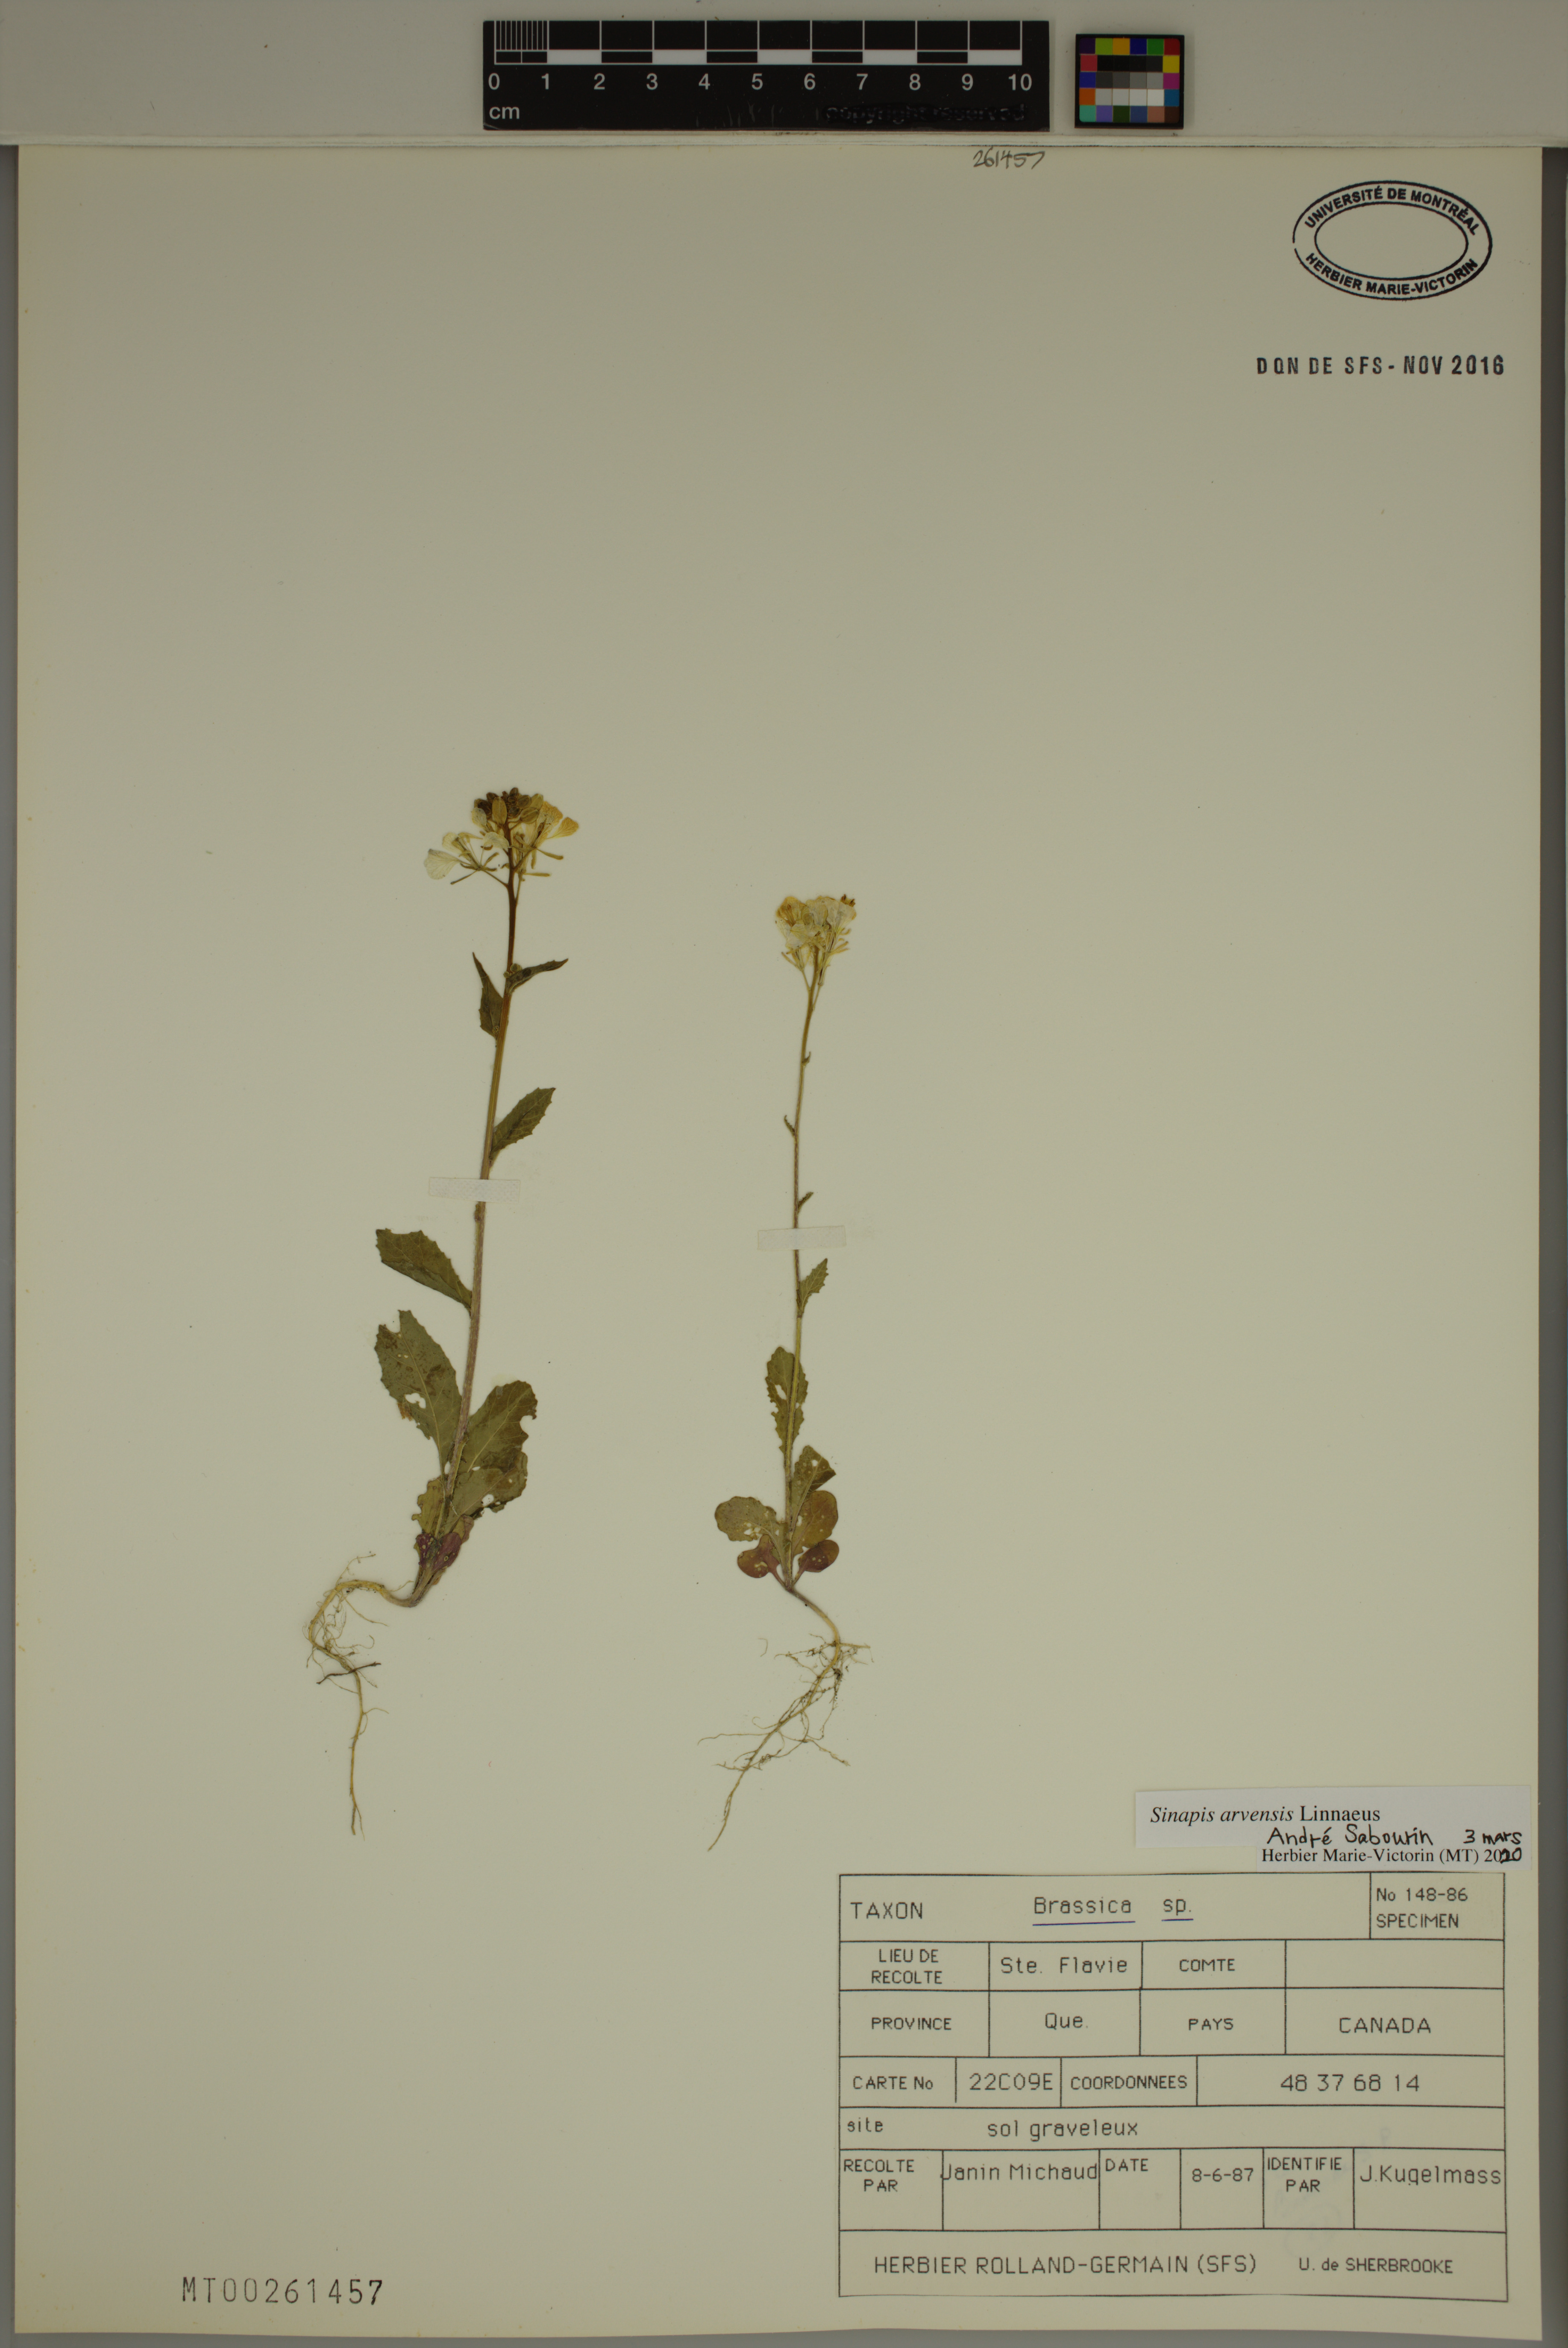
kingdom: Plantae
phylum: Tracheophyta
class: Magnoliopsida
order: Brassicales
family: Brassicaceae
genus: Sinapis
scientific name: Sinapis arvensis
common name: Charlock
